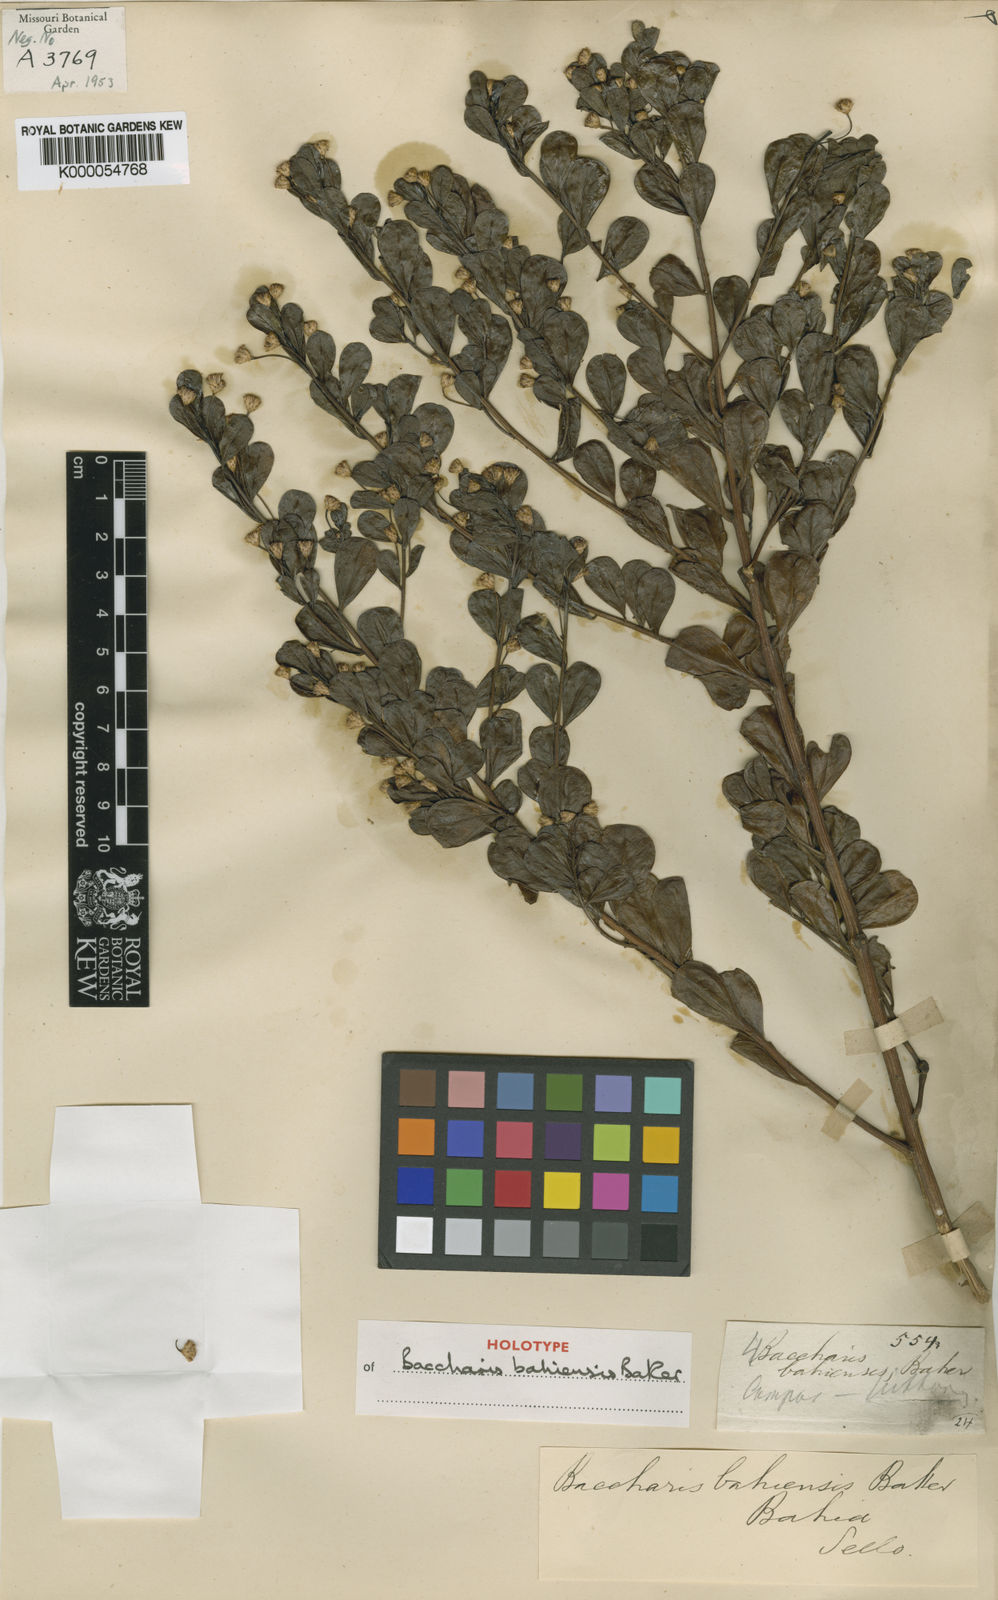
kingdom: Plantae
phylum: Tracheophyta
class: Magnoliopsida
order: Asterales
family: Asteraceae
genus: Baccharis
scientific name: Baccharis reticularia
